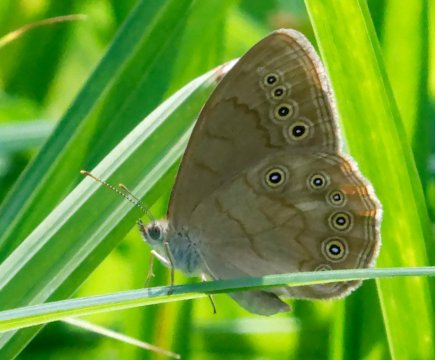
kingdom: Animalia
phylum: Arthropoda
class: Insecta
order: Lepidoptera
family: Nymphalidae
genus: Lethe
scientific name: Lethe eurydice
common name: Eyed Brown
